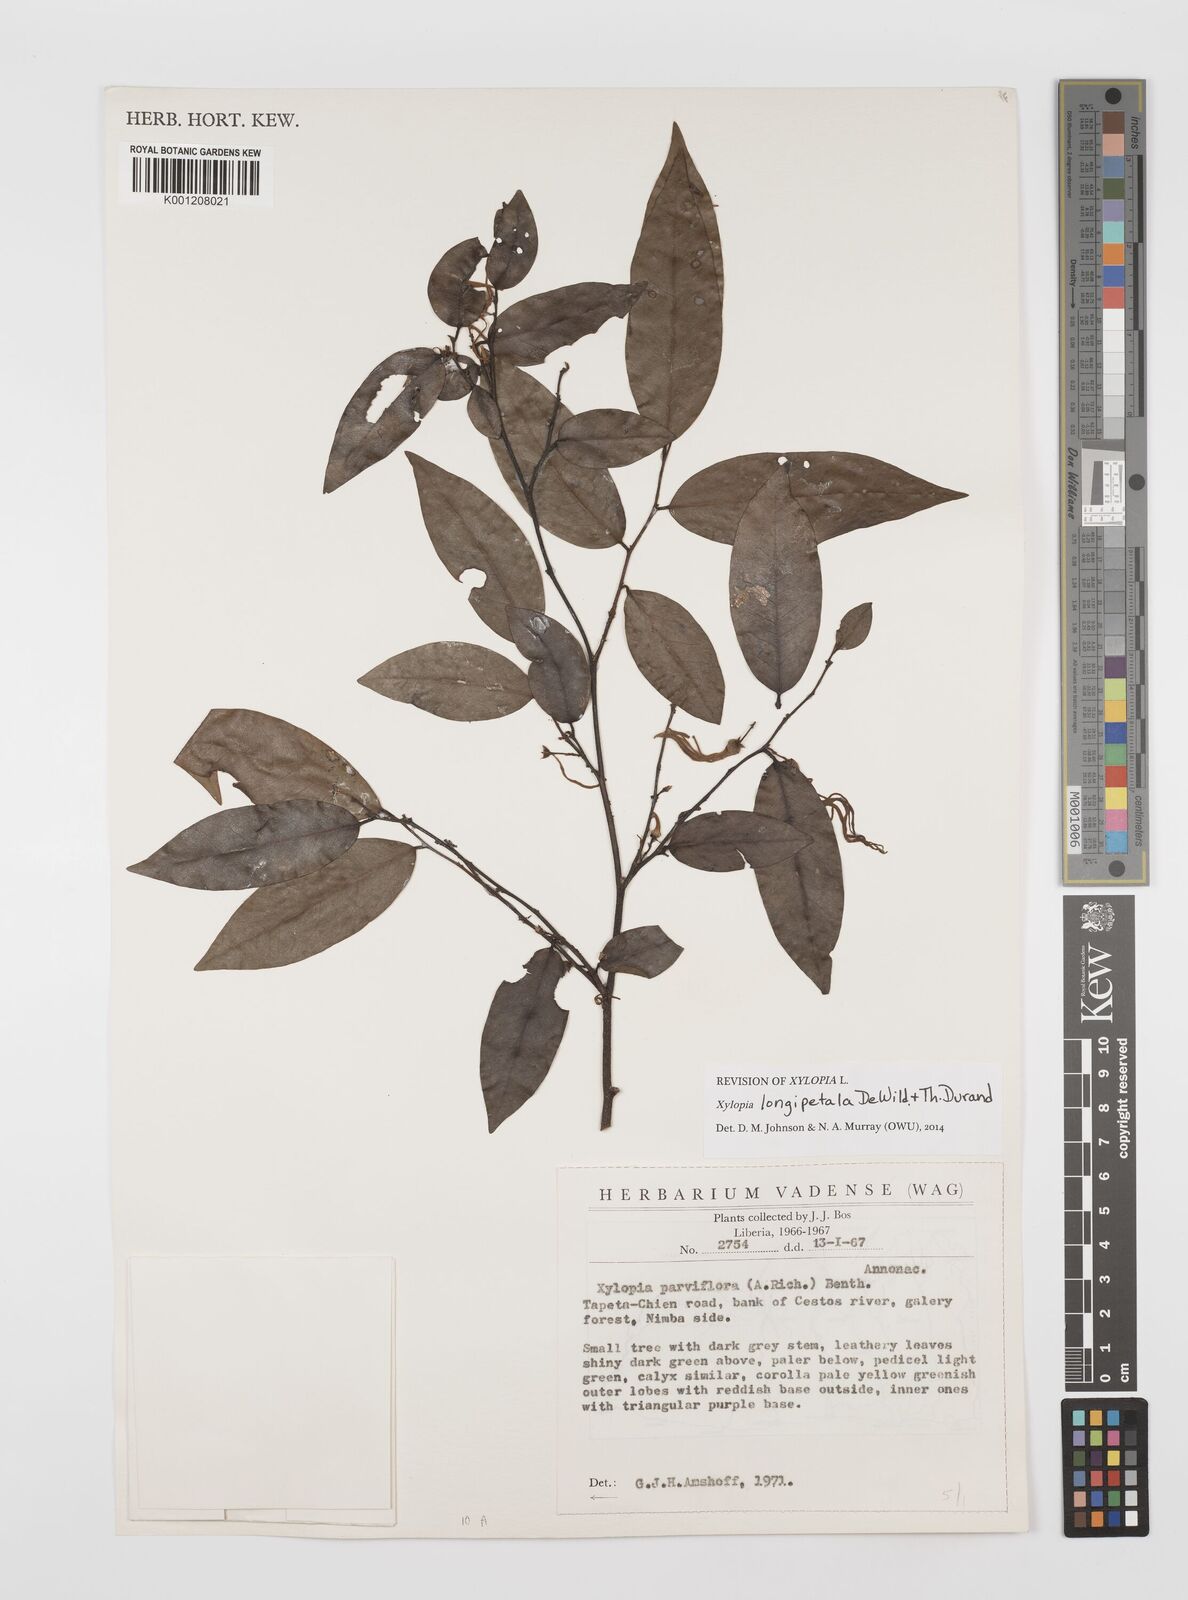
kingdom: Plantae
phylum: Tracheophyta
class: Magnoliopsida
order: Magnoliales
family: Annonaceae
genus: Xylopia
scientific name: Xylopia parviflora
